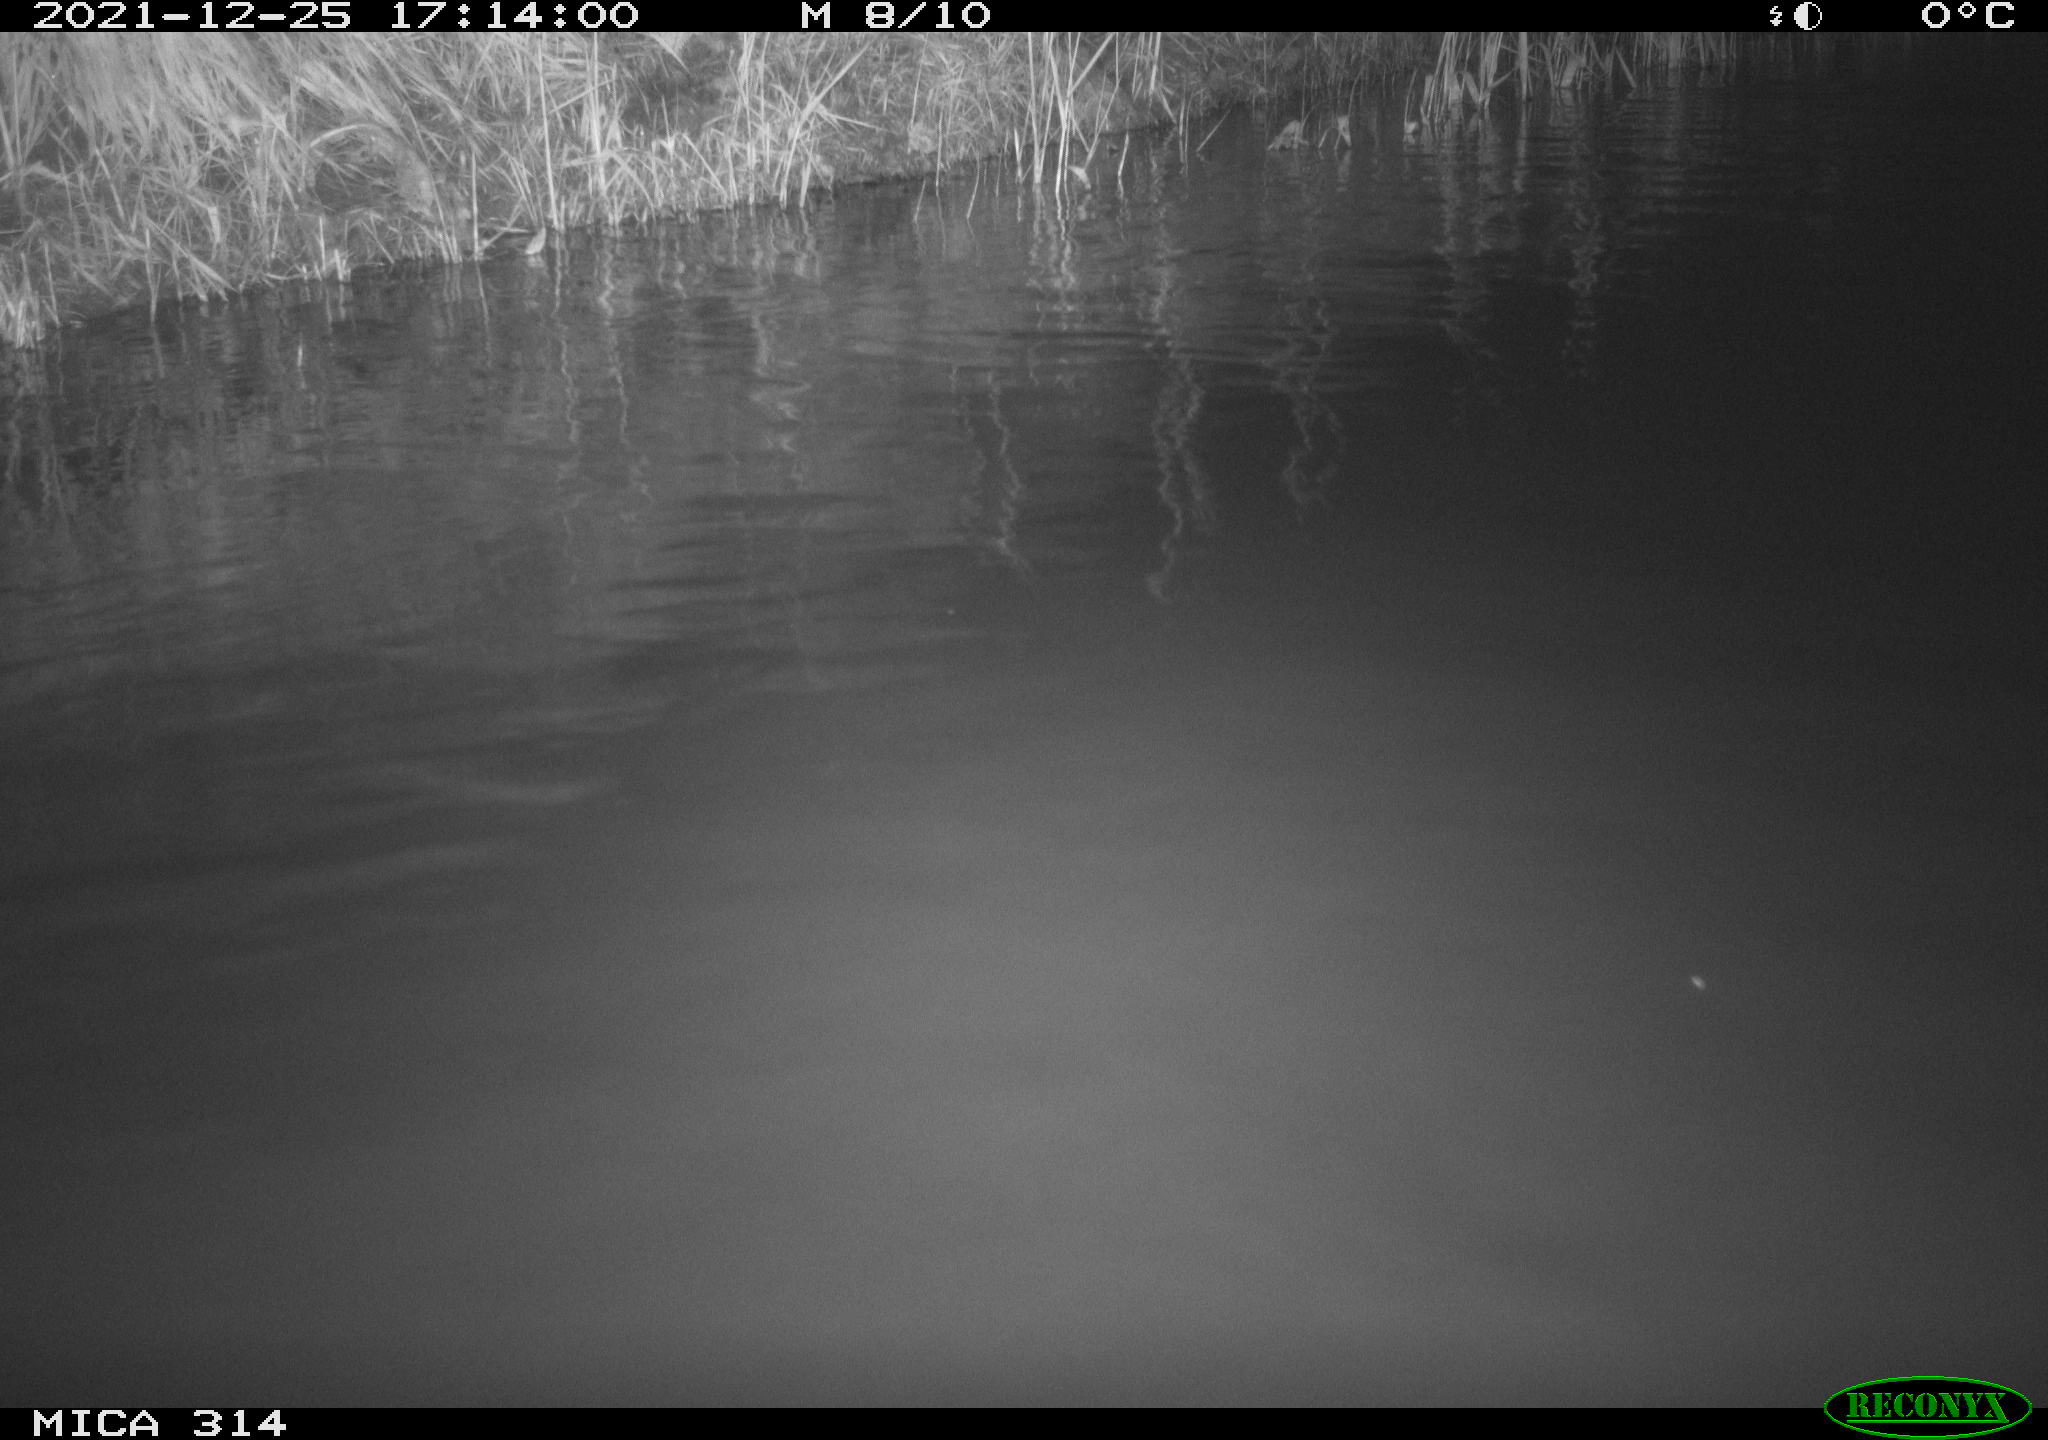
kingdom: Animalia
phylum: Chordata
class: Aves
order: Gruiformes
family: Rallidae
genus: Gallinula
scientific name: Gallinula chloropus
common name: Common moorhen
